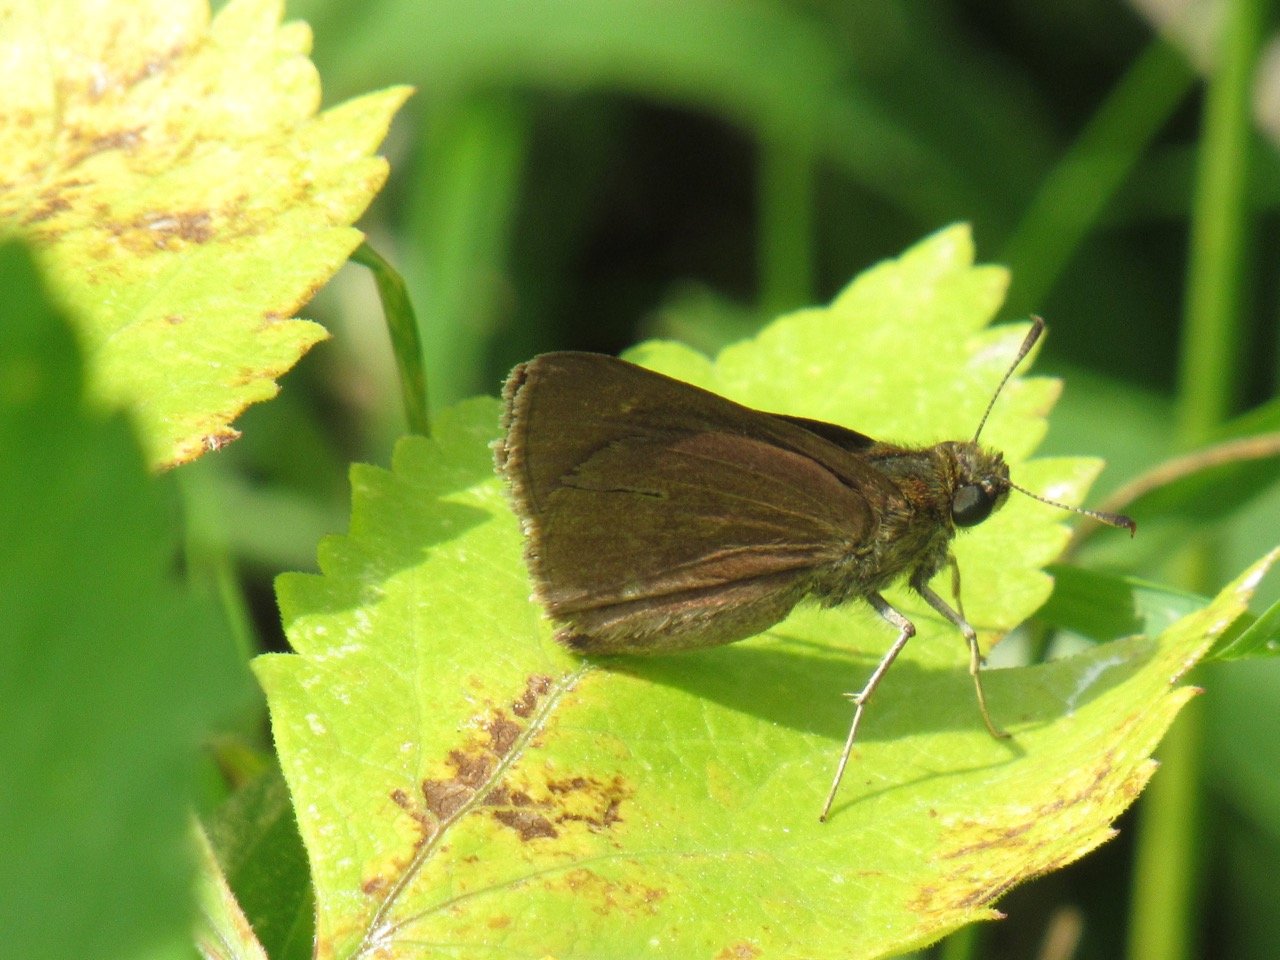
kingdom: Animalia
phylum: Arthropoda
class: Insecta
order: Lepidoptera
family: Hesperiidae
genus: Euphyes
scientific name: Euphyes vestris
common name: Dun Skipper
